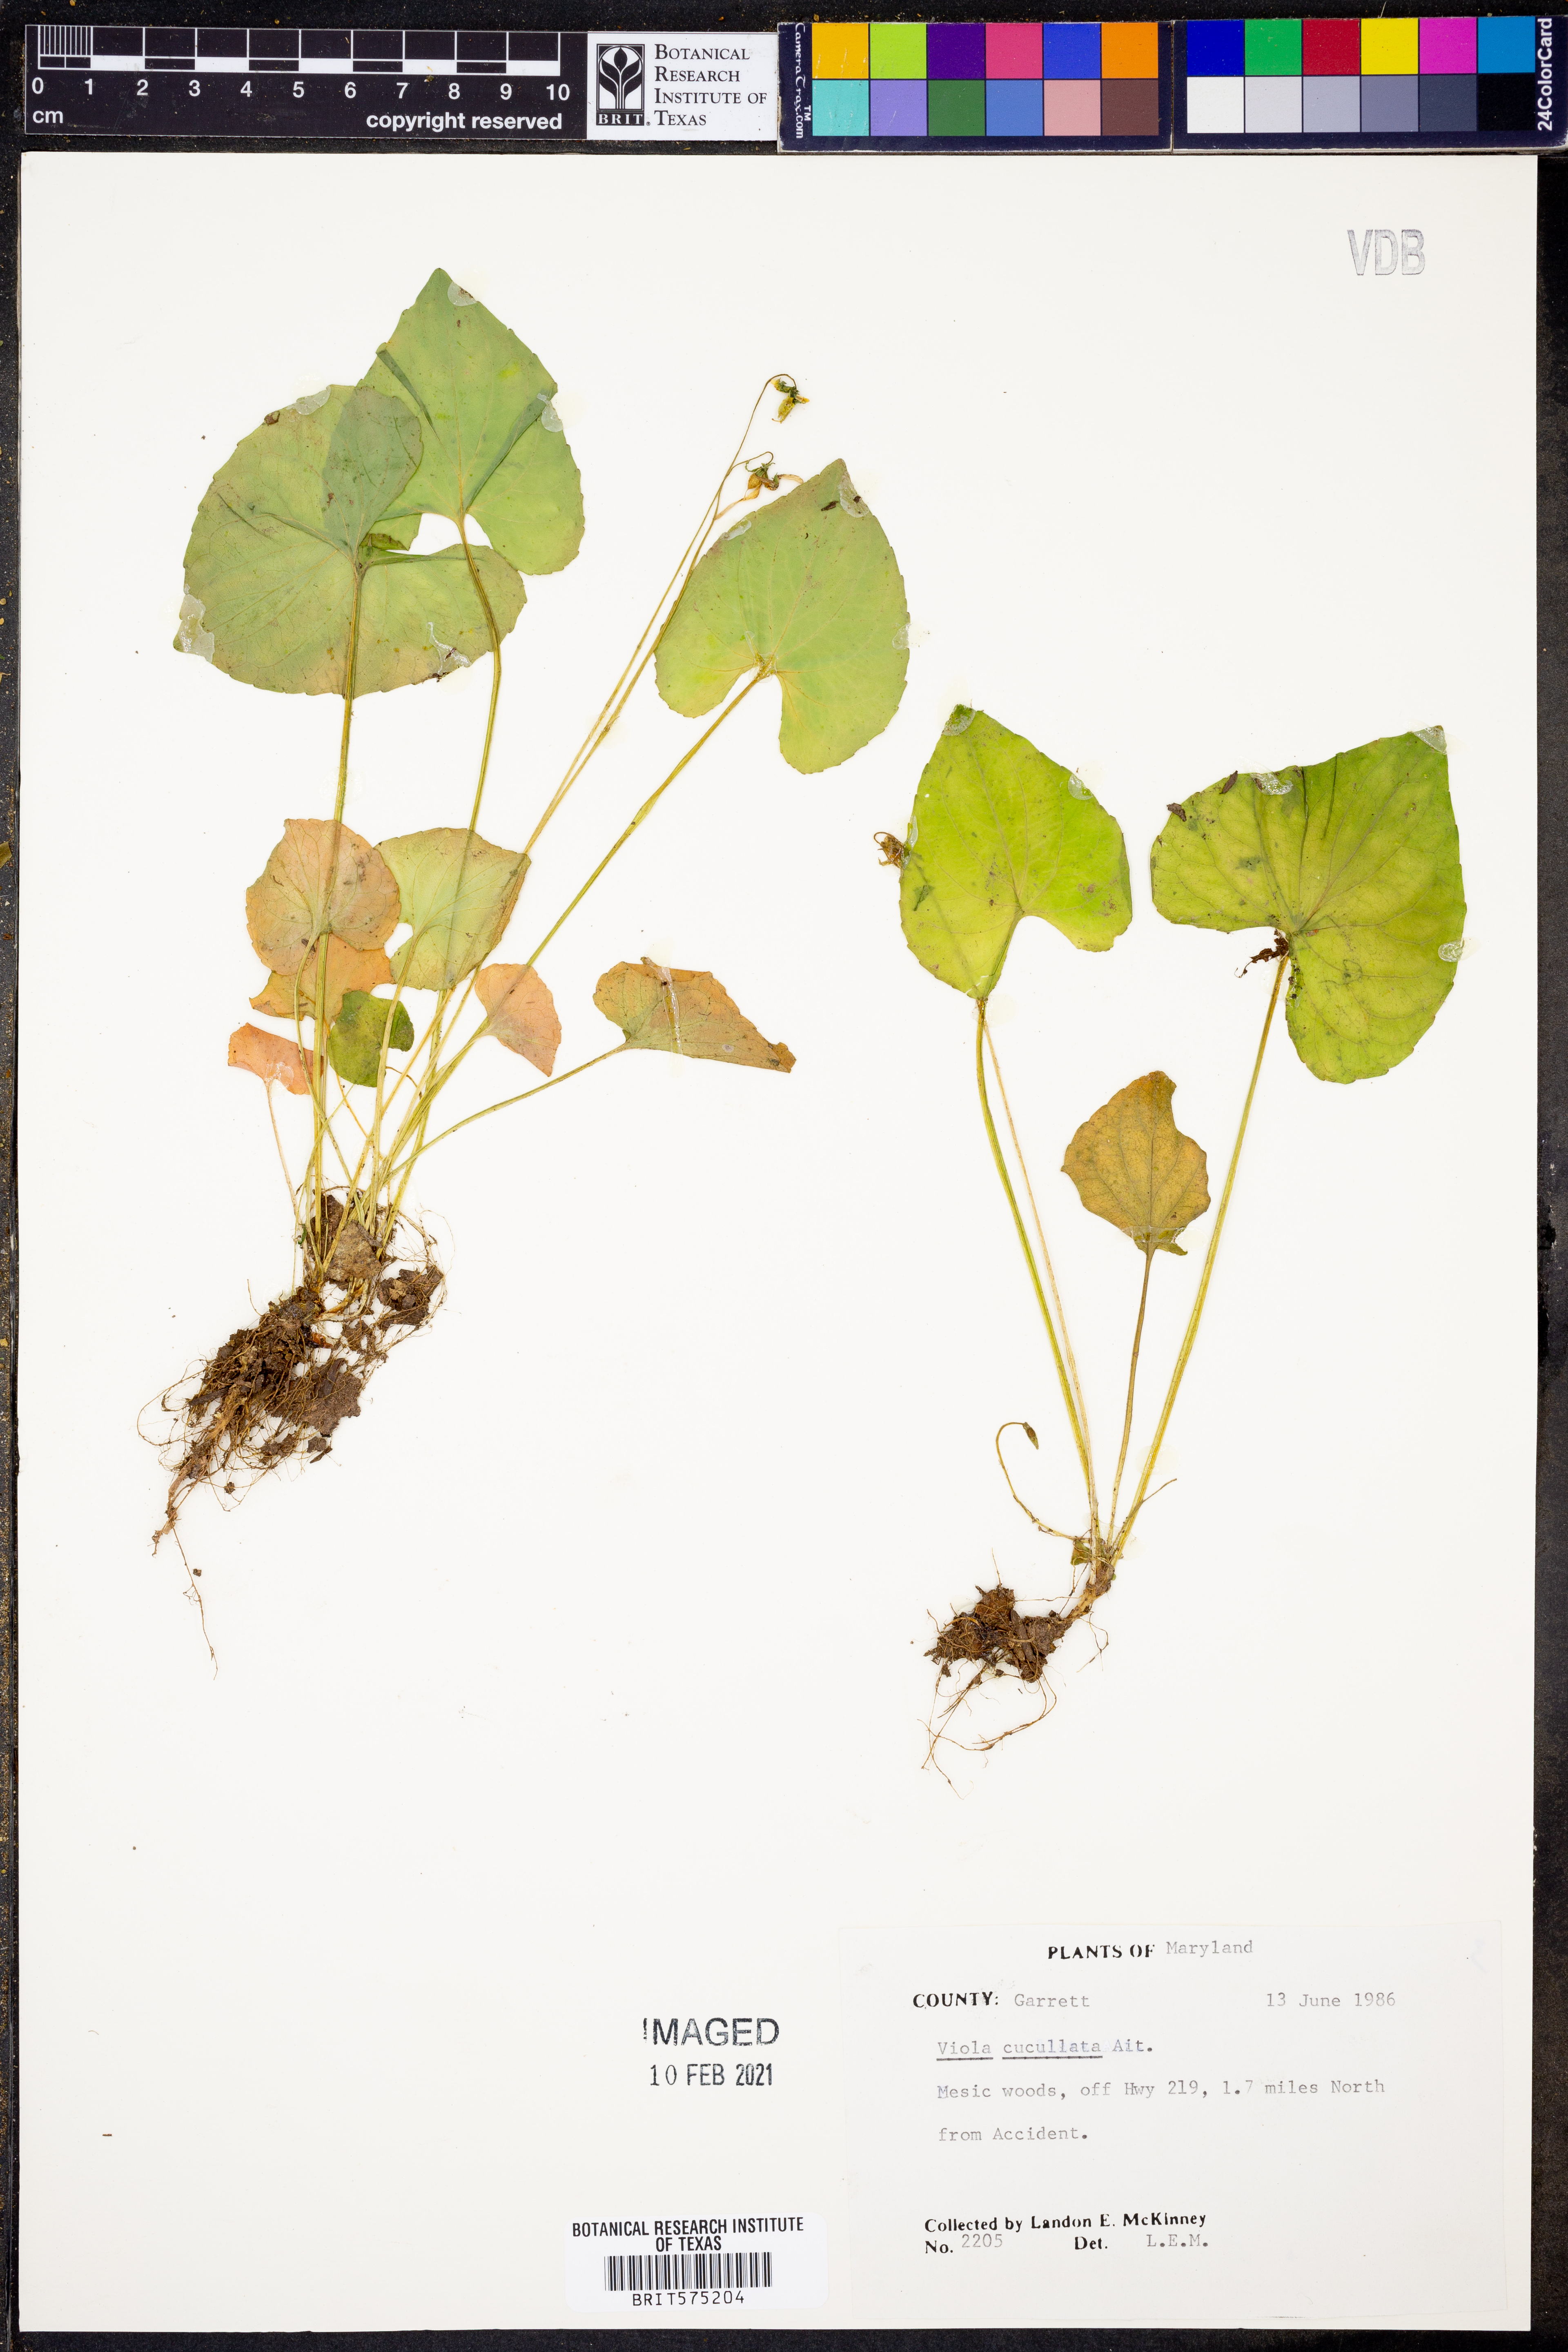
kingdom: Plantae
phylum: Tracheophyta
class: Magnoliopsida
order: Malpighiales
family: Violaceae
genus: Viola
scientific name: Viola cucullata
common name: Marsh blue violet
